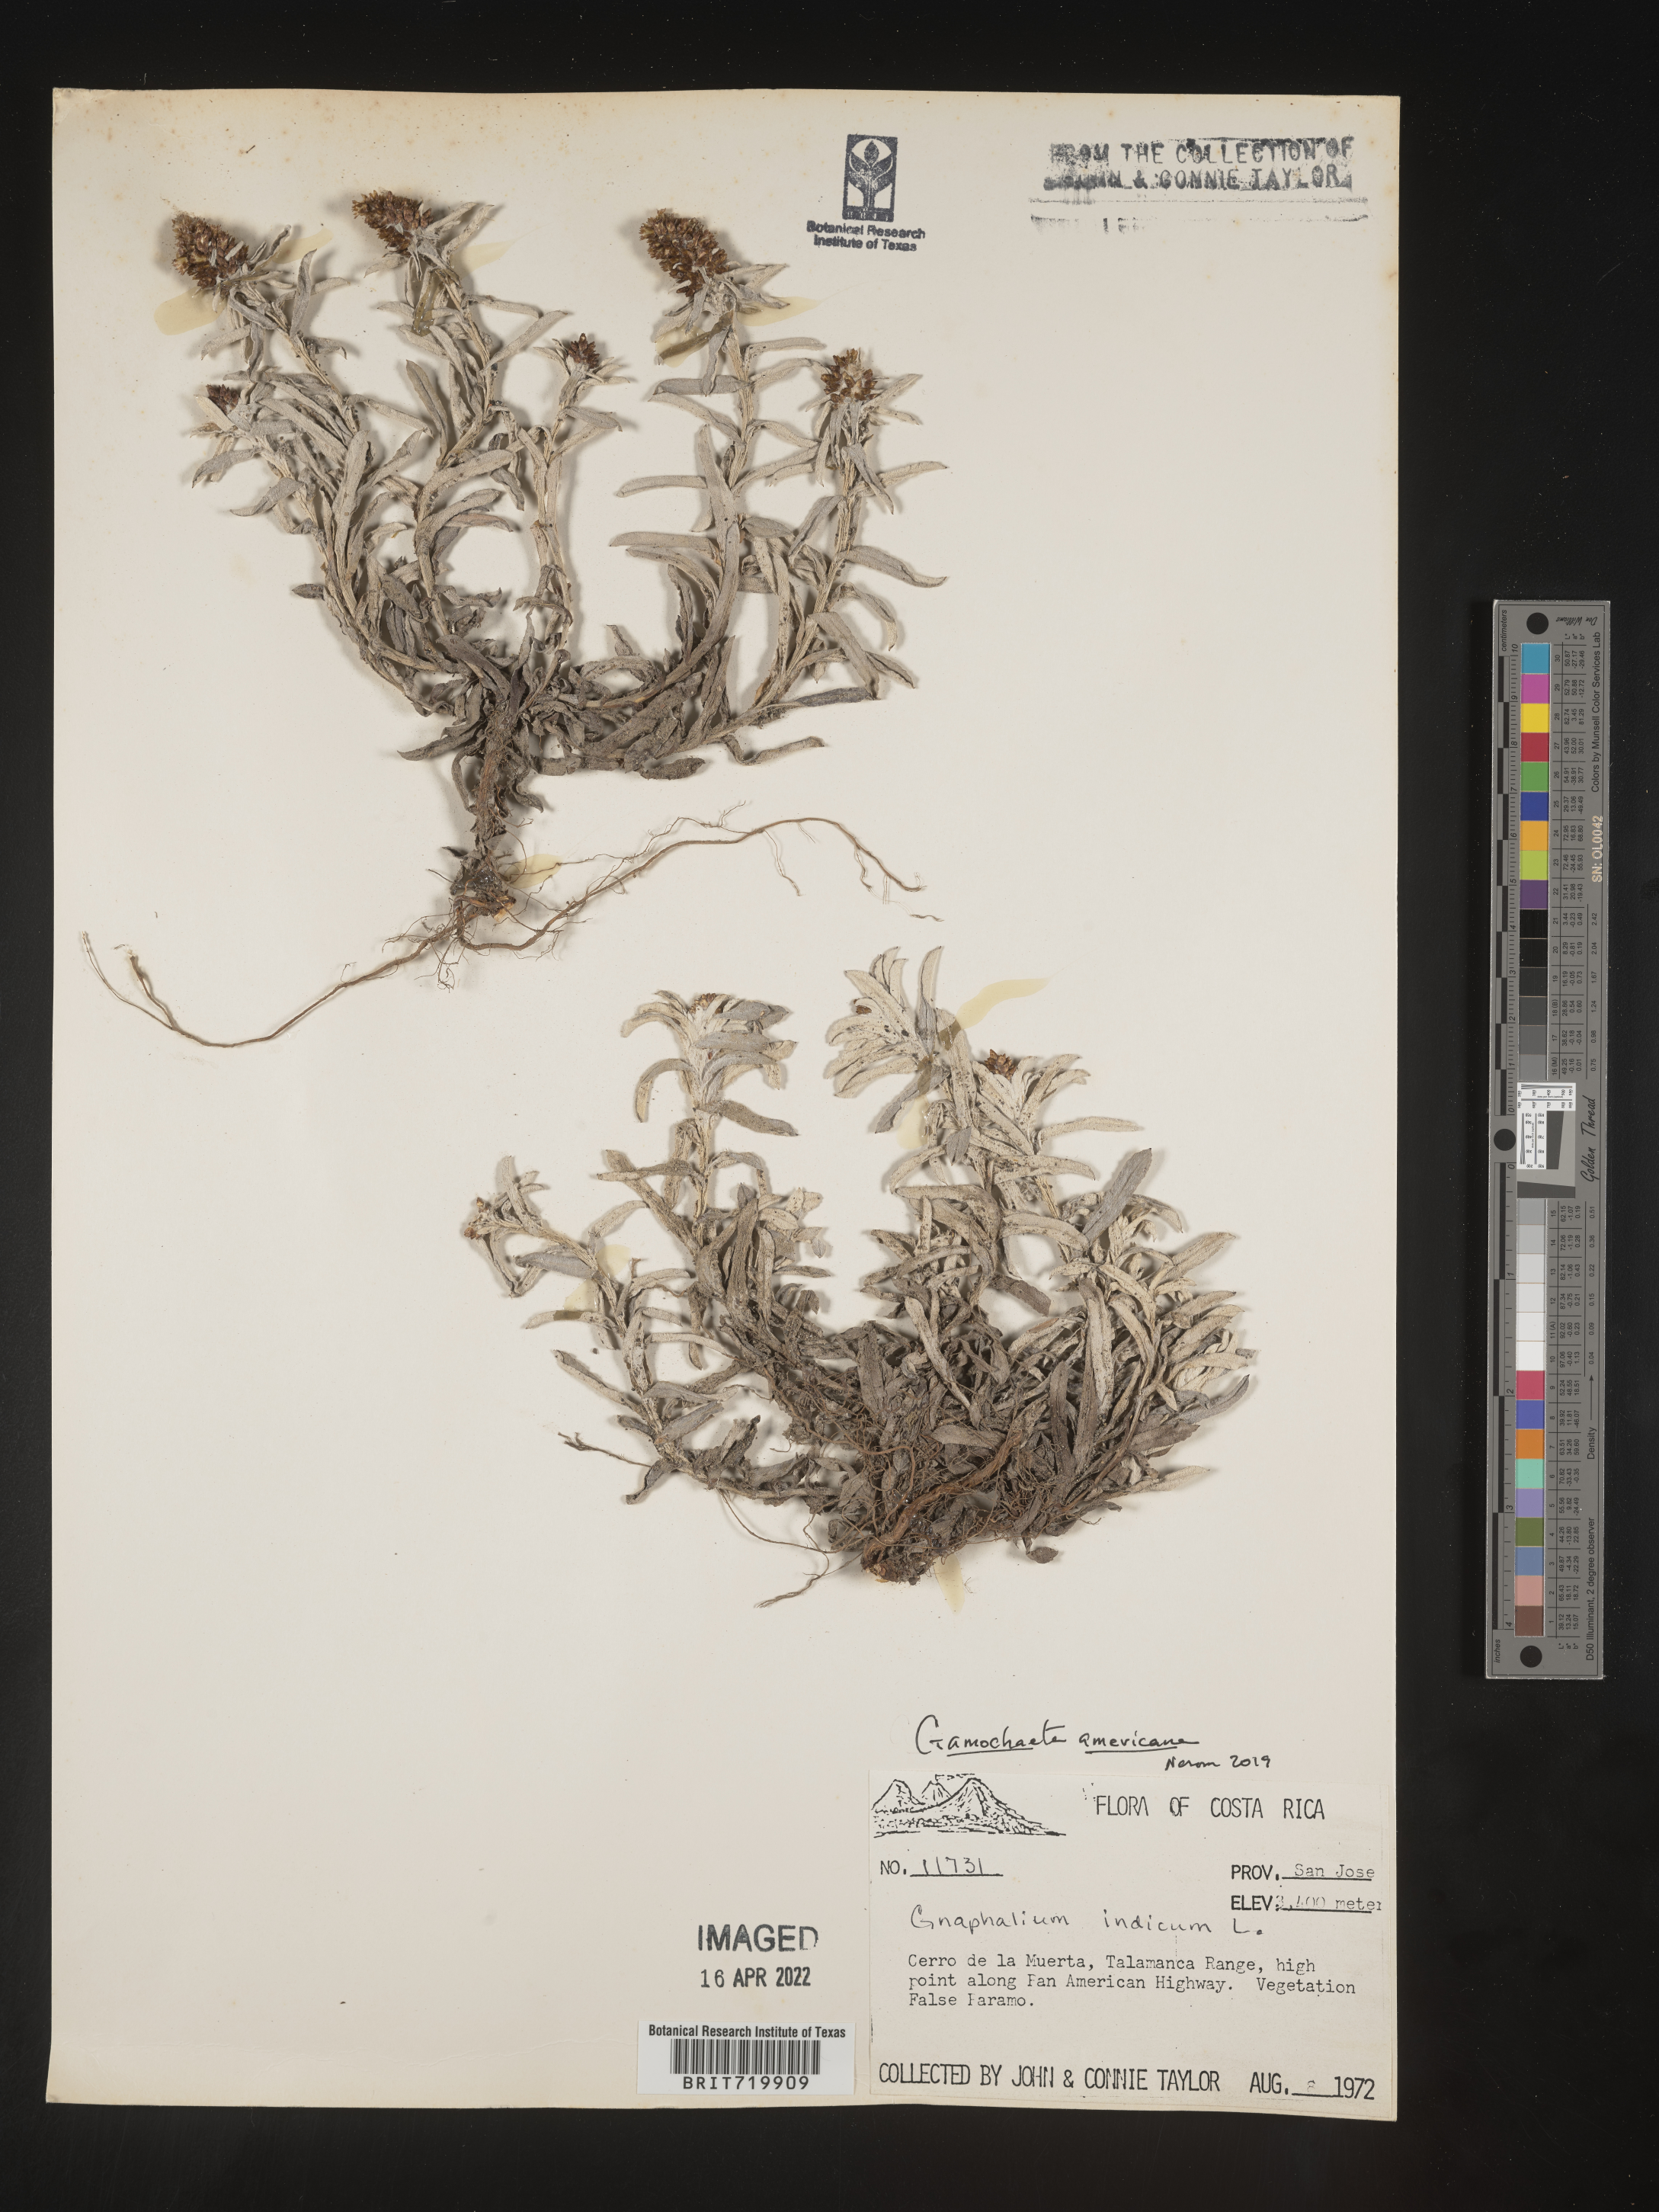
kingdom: Plantae
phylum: Tracheophyta
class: Magnoliopsida
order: Asterales
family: Asteraceae
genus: Gamochaeta
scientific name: Gamochaeta
